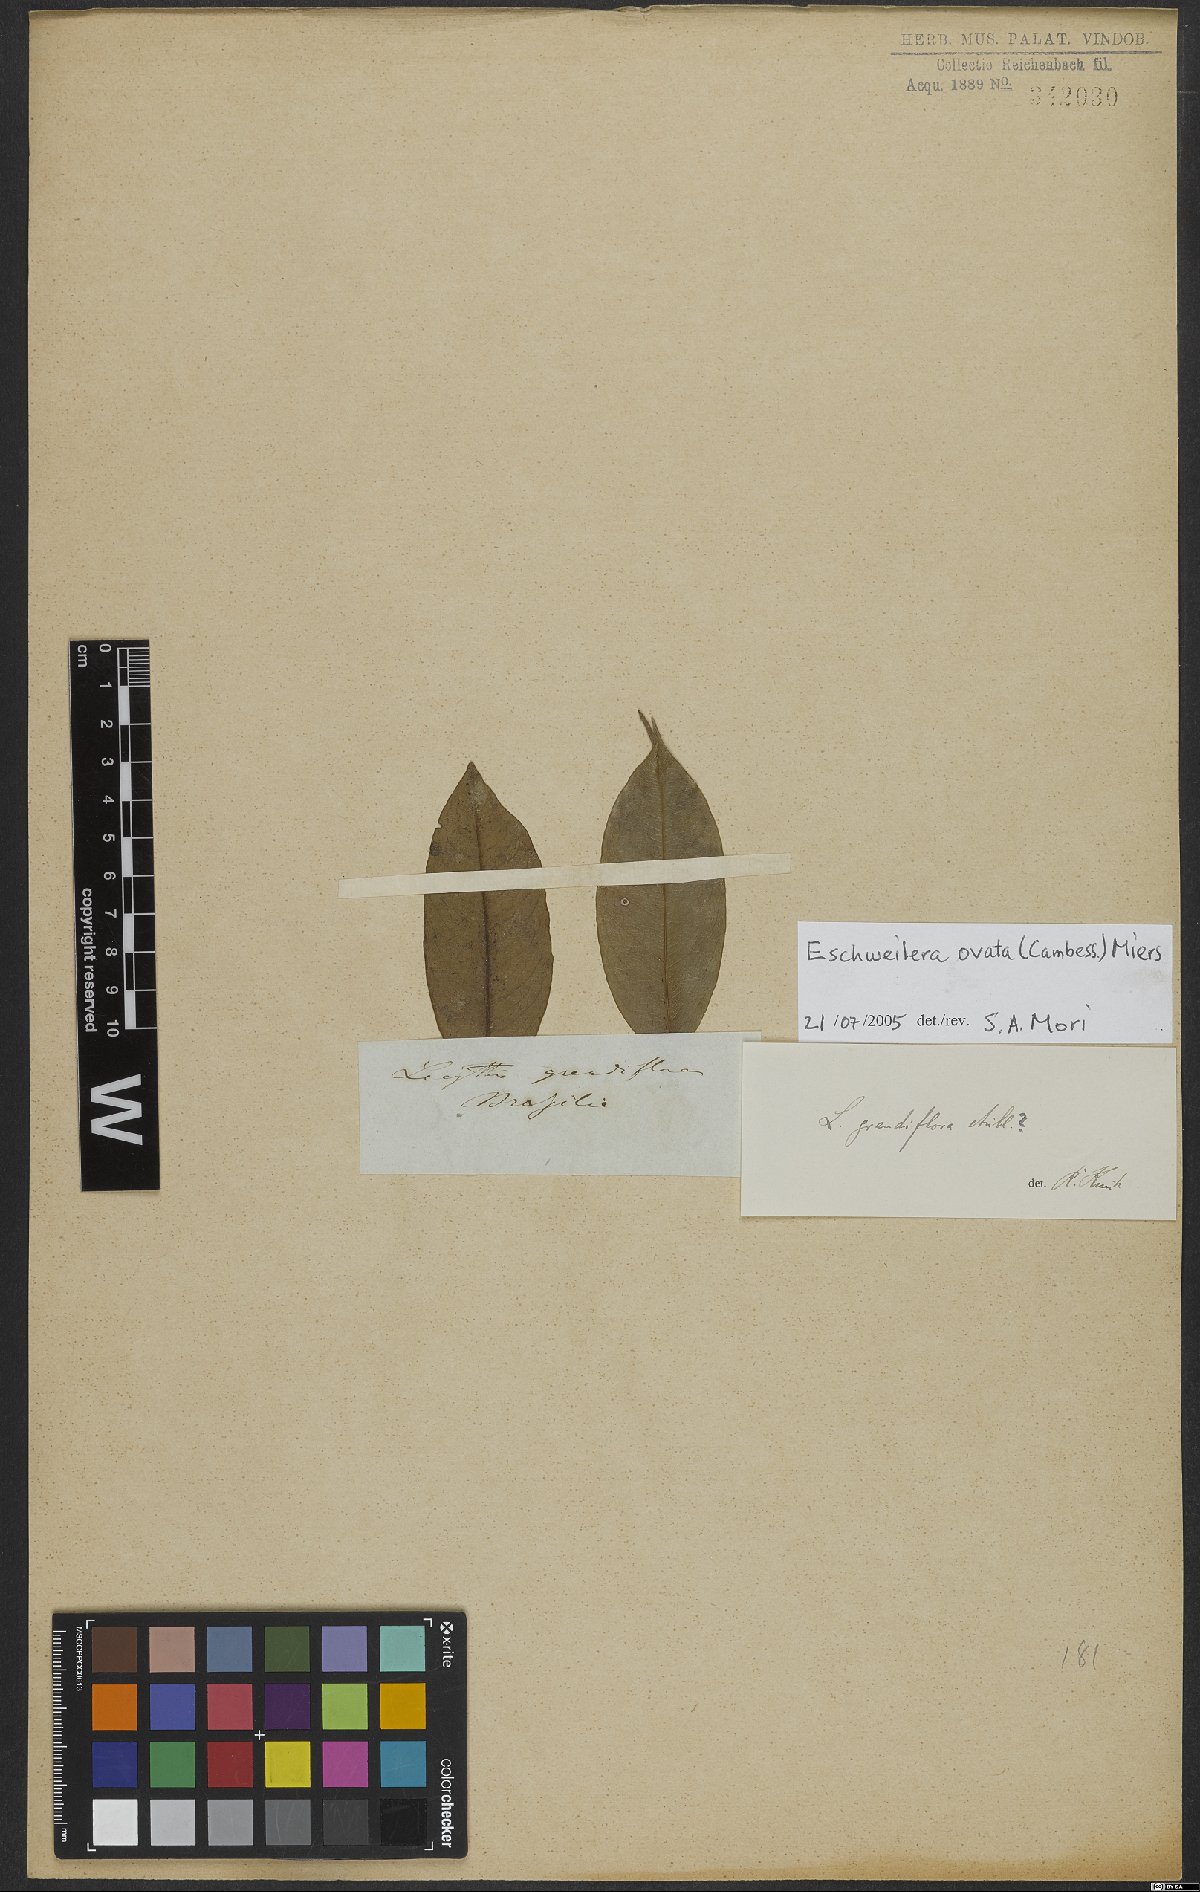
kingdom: Plantae
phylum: Tracheophyta
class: Magnoliopsida
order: Ericales
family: Lecythidaceae
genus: Eschweilera
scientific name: Eschweilera ovata
